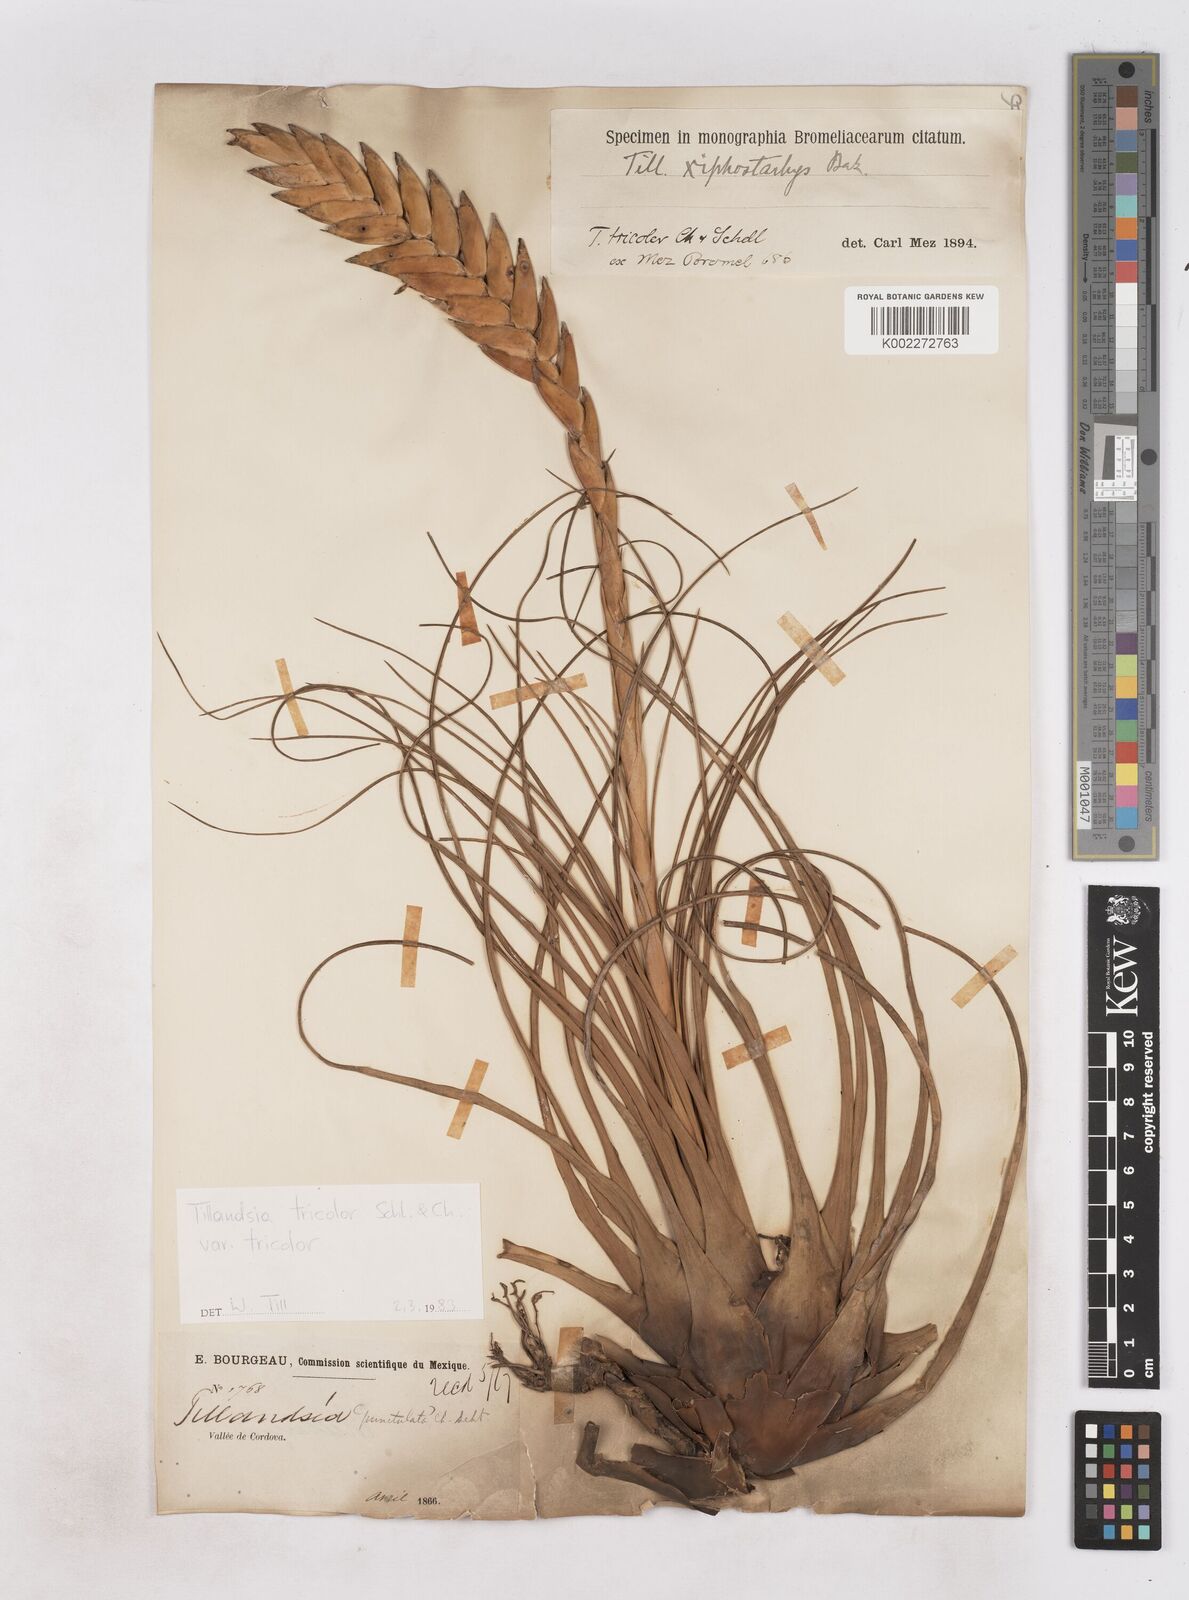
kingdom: Plantae
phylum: Tracheophyta
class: Liliopsida
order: Poales
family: Bromeliaceae
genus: Tillandsia
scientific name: Tillandsia tricolor
